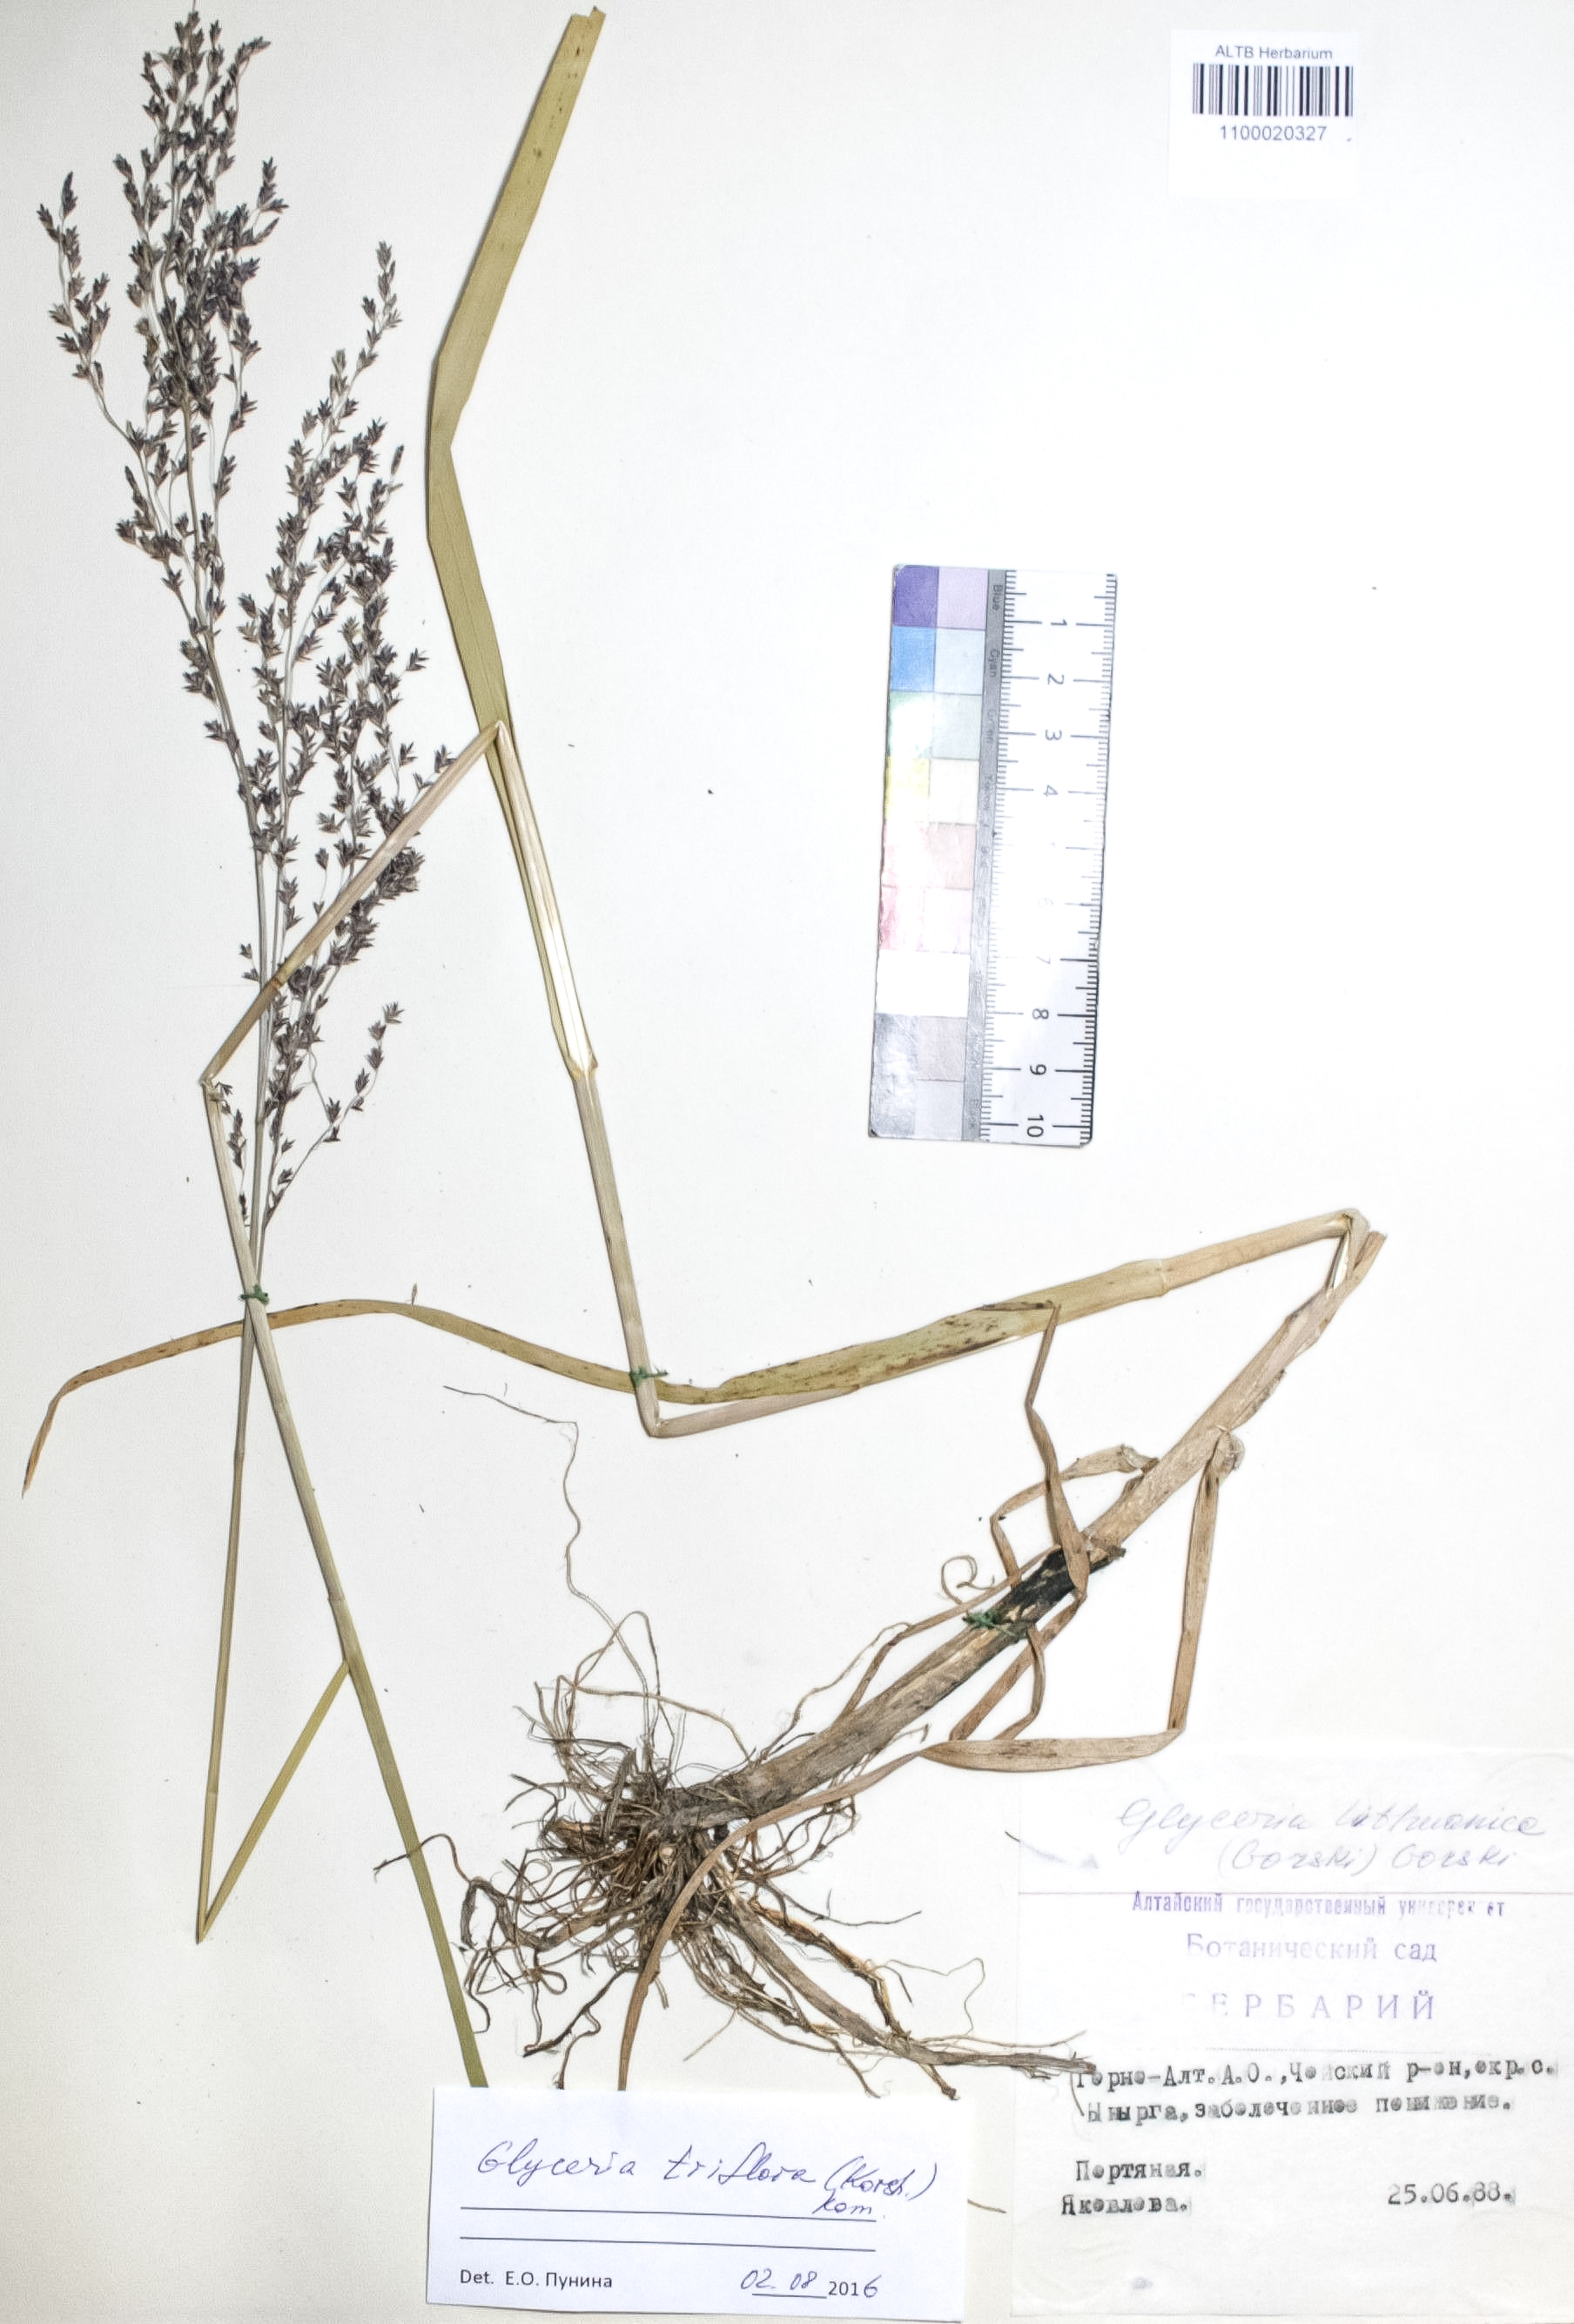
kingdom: Plantae
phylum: Tracheophyta
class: Liliopsida
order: Poales
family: Poaceae
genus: Glyceria
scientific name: Glyceria lithuanica
